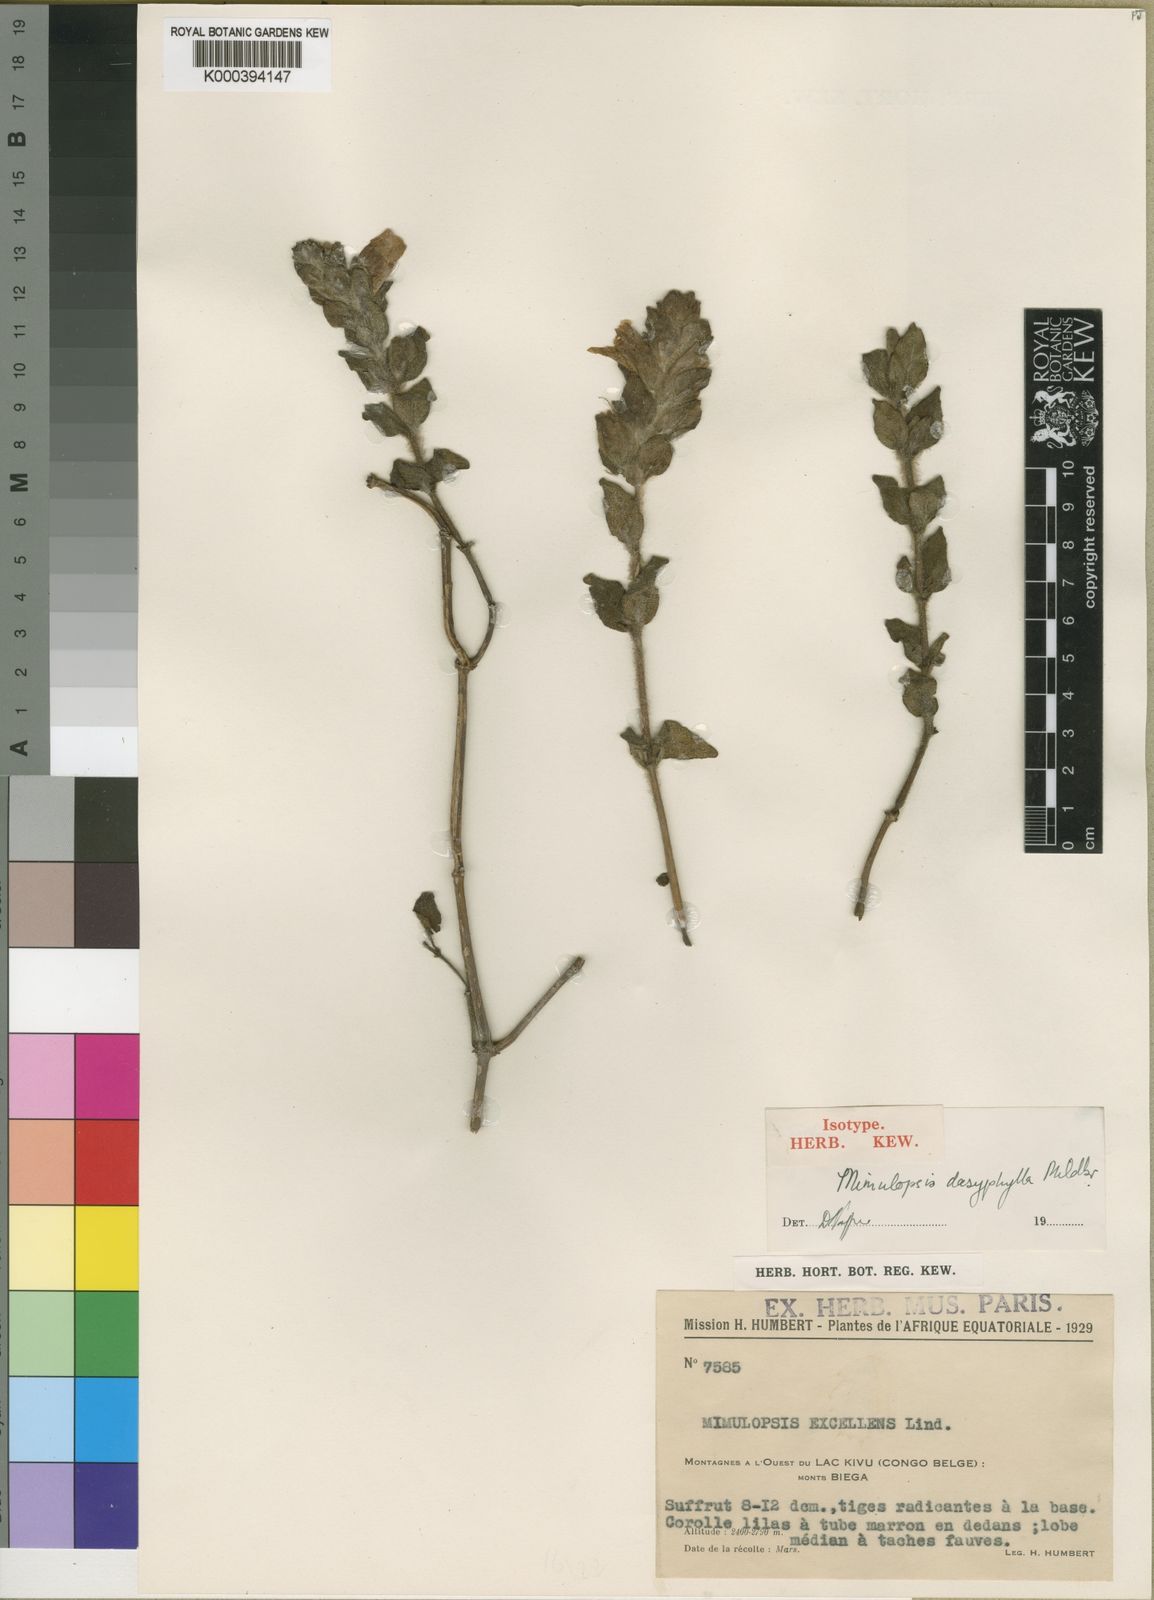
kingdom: Plantae
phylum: Tracheophyta
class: Magnoliopsida
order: Lamiales
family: Acanthaceae
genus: Mimulopsis
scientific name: Mimulopsis dasyphylla
